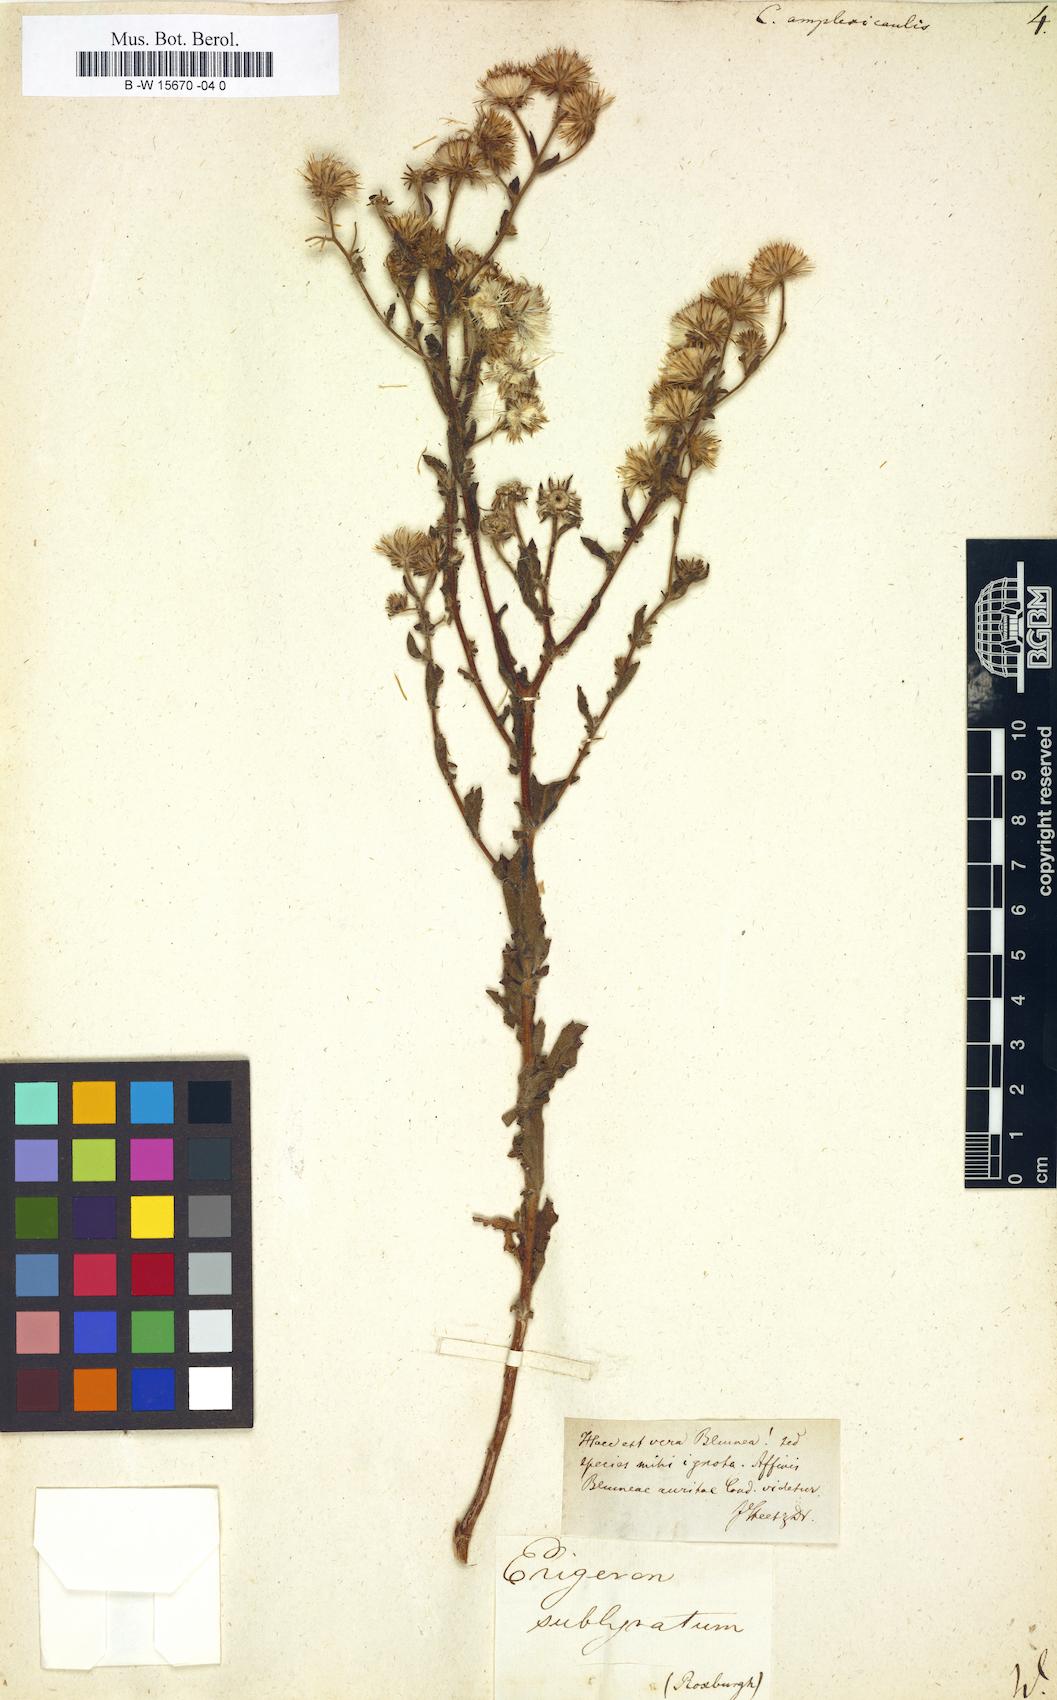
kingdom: Plantae
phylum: Tracheophyta
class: Magnoliopsida
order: Asterales
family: Asteraceae
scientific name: Asteraceae
